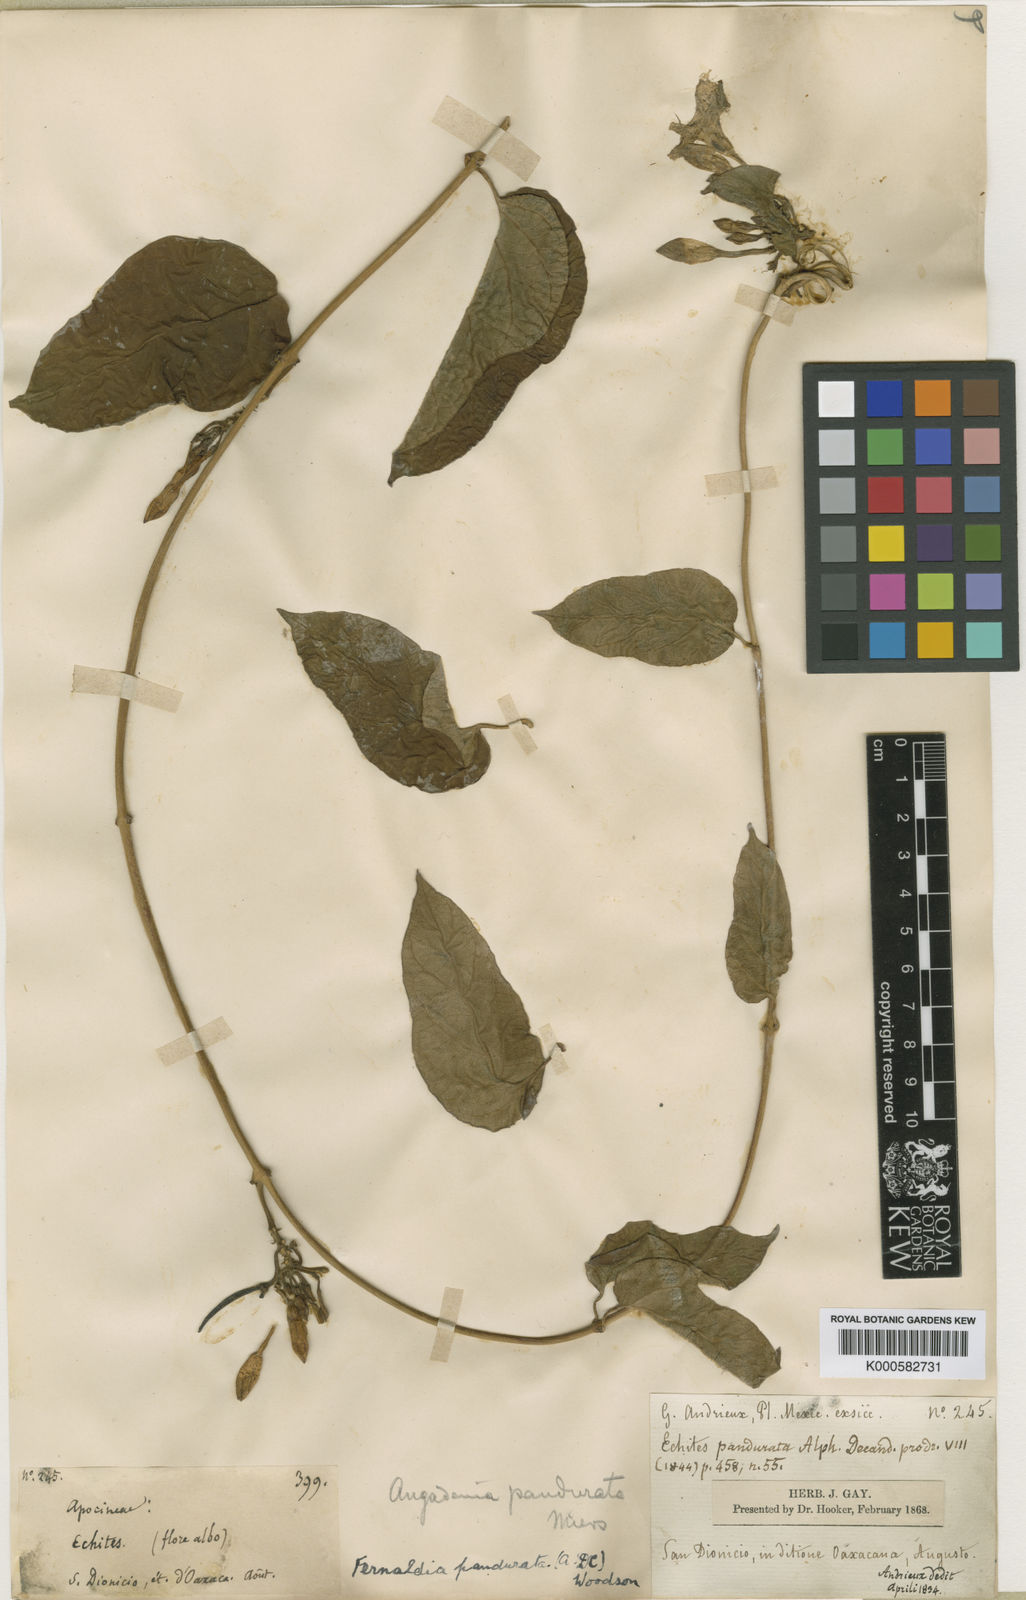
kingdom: Plantae
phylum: Tracheophyta
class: Magnoliopsida
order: Gentianales
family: Apocynaceae
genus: Echites
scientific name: Echites panduratus
